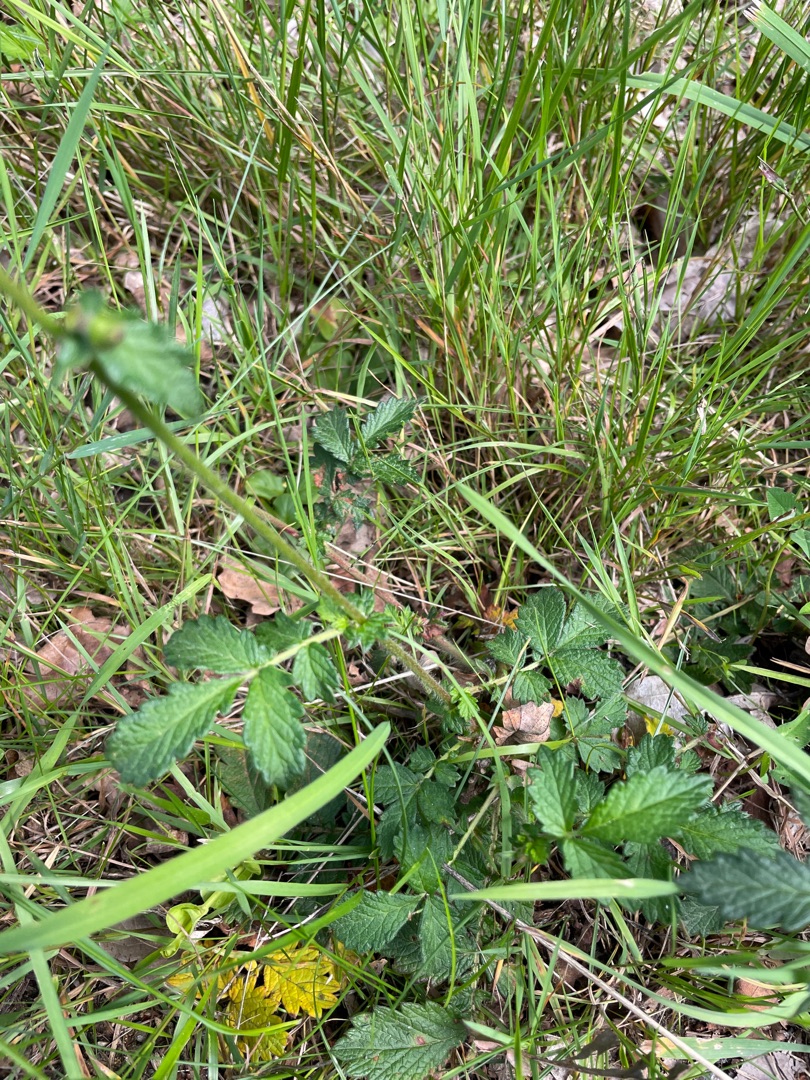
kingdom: Plantae
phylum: Tracheophyta
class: Magnoliopsida
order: Rosales
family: Rosaceae
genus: Agrimonia
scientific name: Agrimonia
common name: Agermåneslægten
